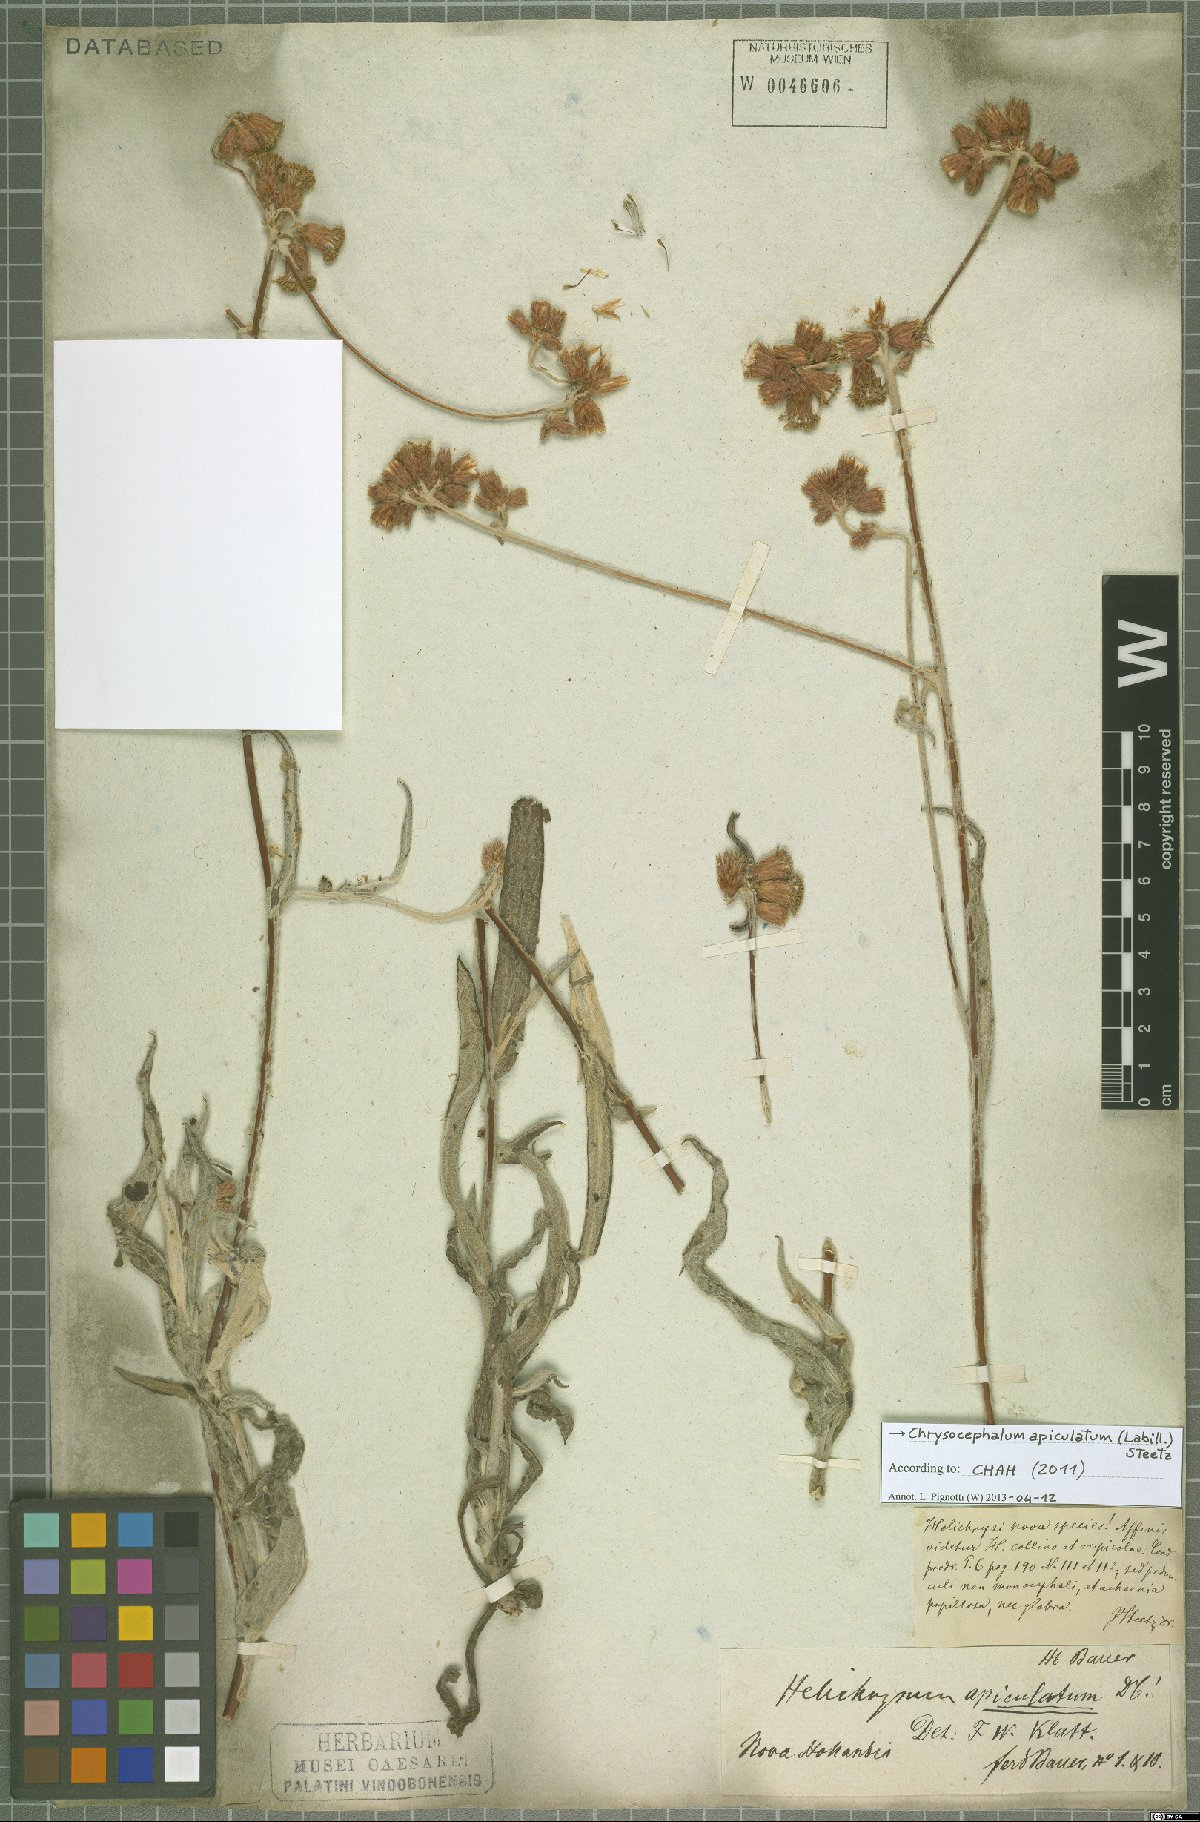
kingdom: Plantae
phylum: Tracheophyta
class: Magnoliopsida
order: Asterales
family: Asteraceae
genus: Chrysocephalum
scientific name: Chrysocephalum apiculatum
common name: Common everlasting
